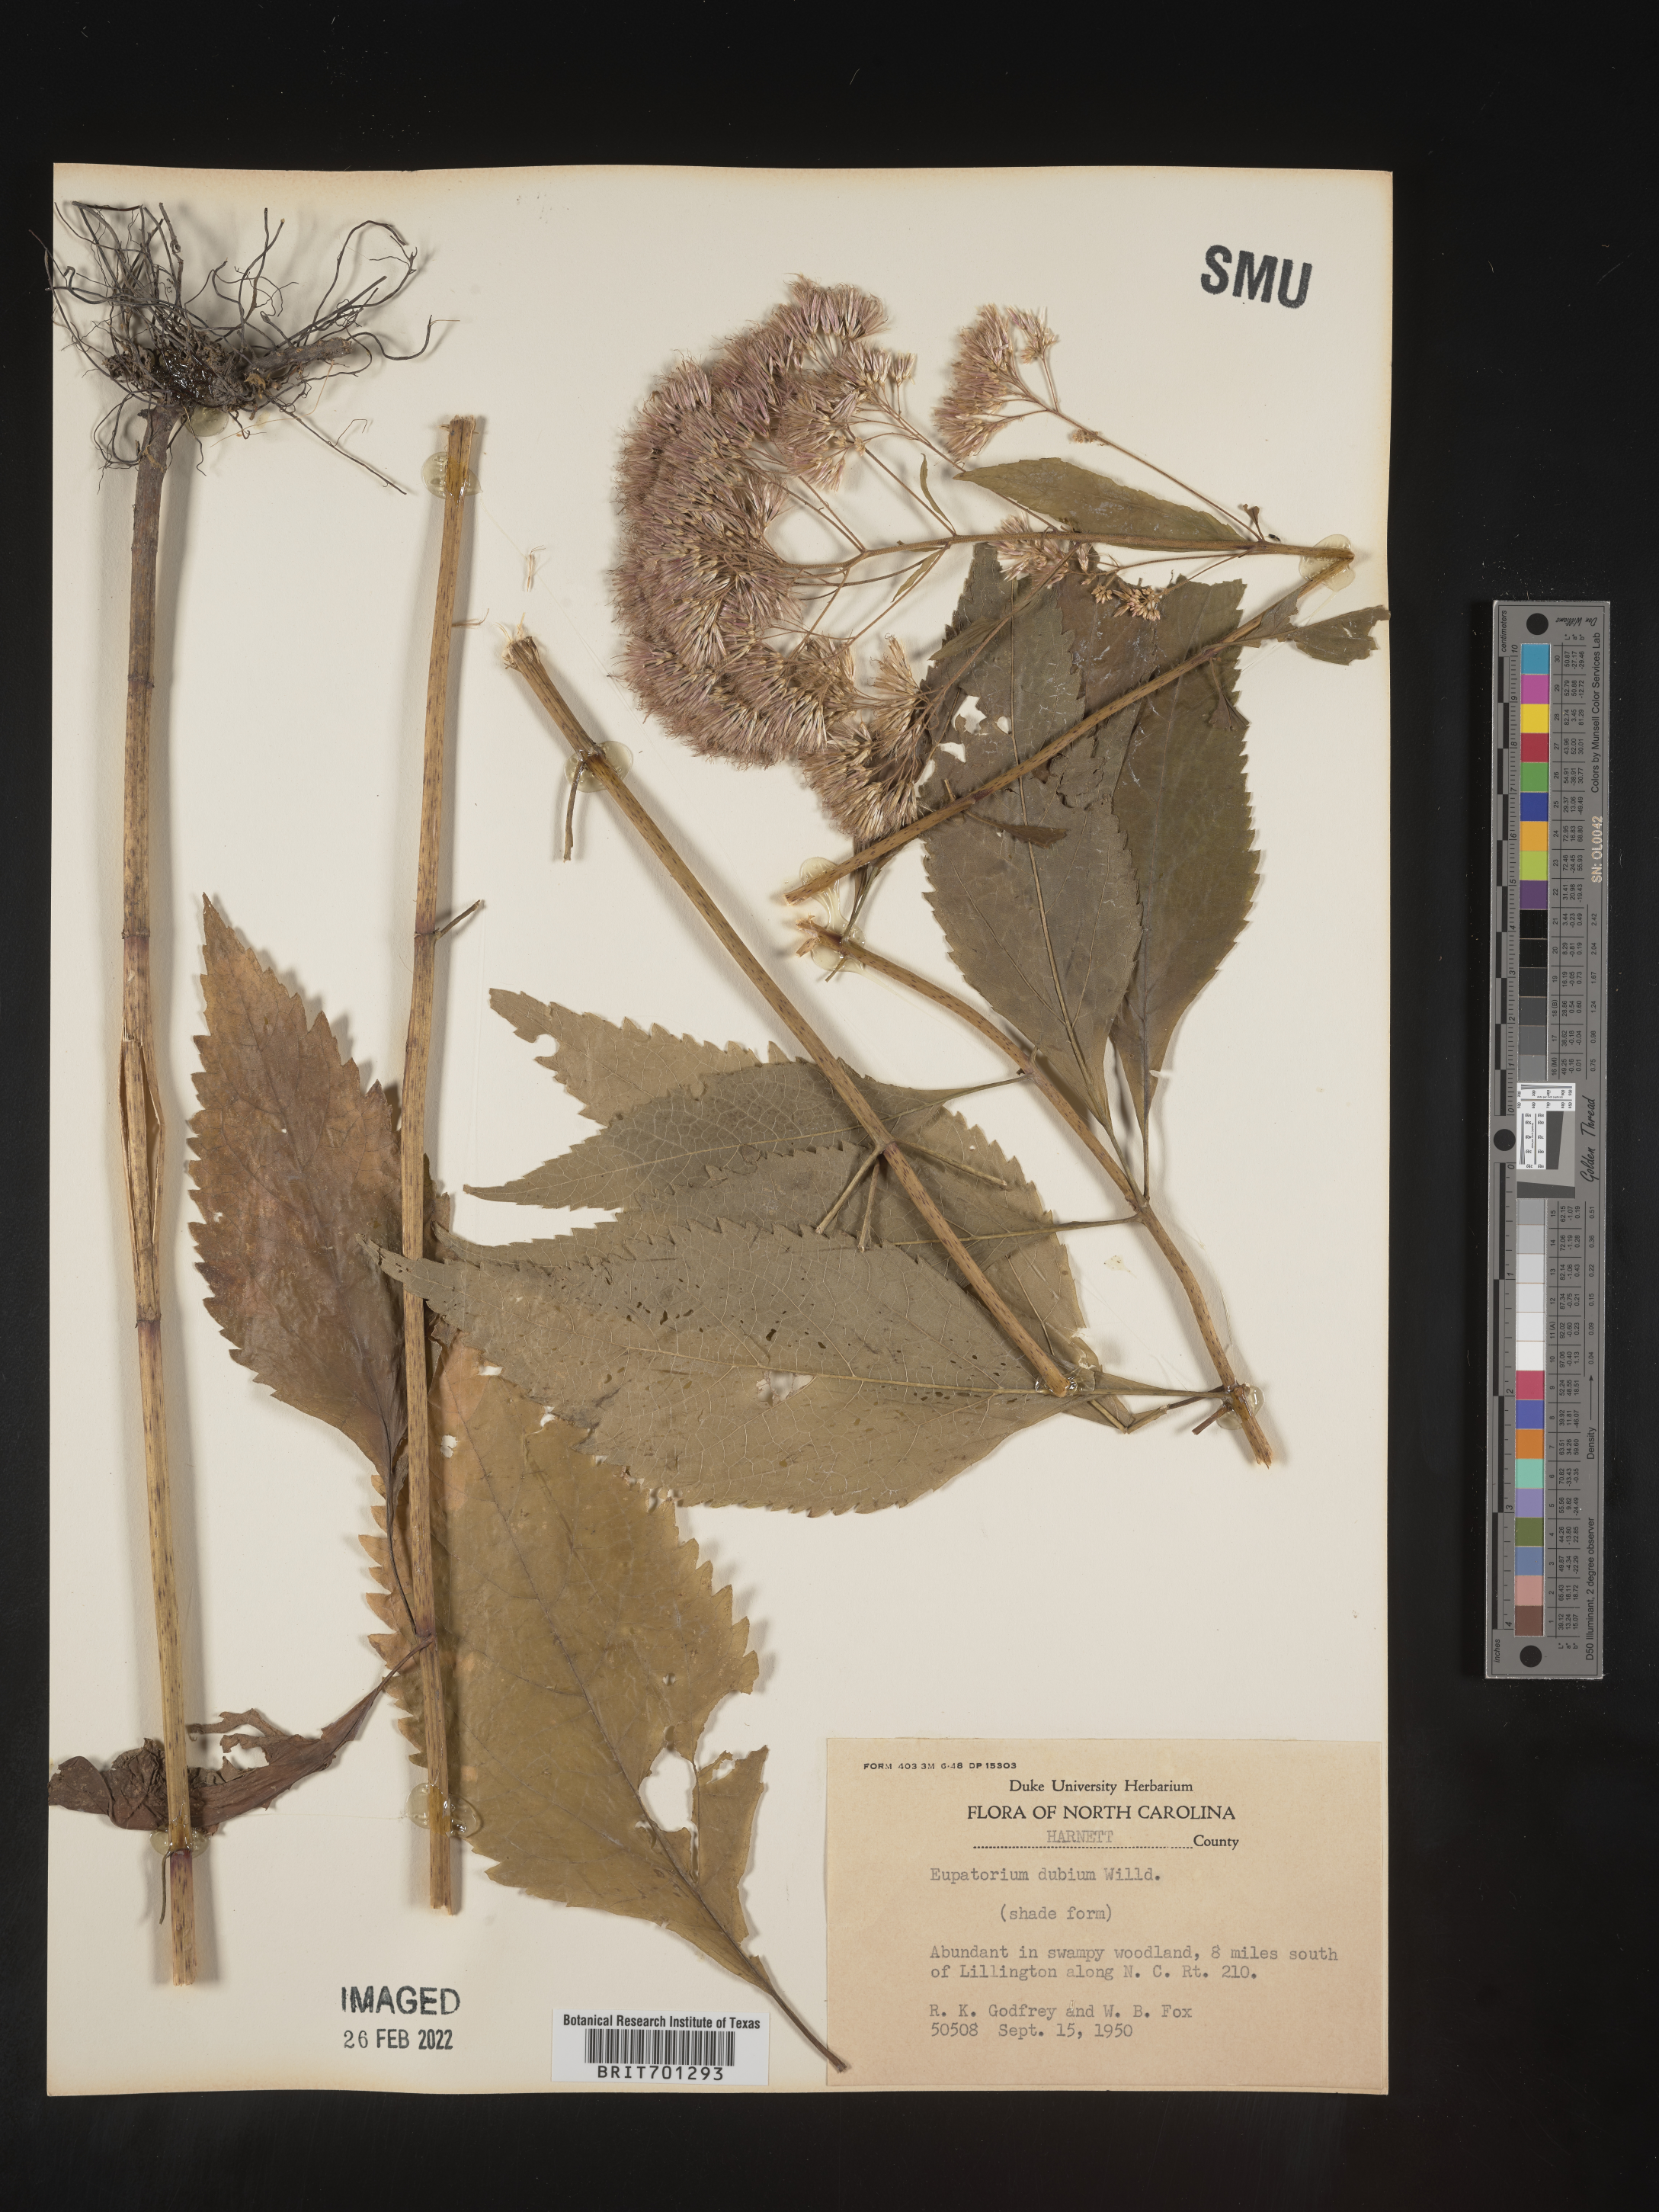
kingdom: Plantae
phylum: Tracheophyta
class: Magnoliopsida
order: Asterales
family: Asteraceae
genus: Eutrochium
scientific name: Eutrochium dubium
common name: Coastal plain joe pye weed
